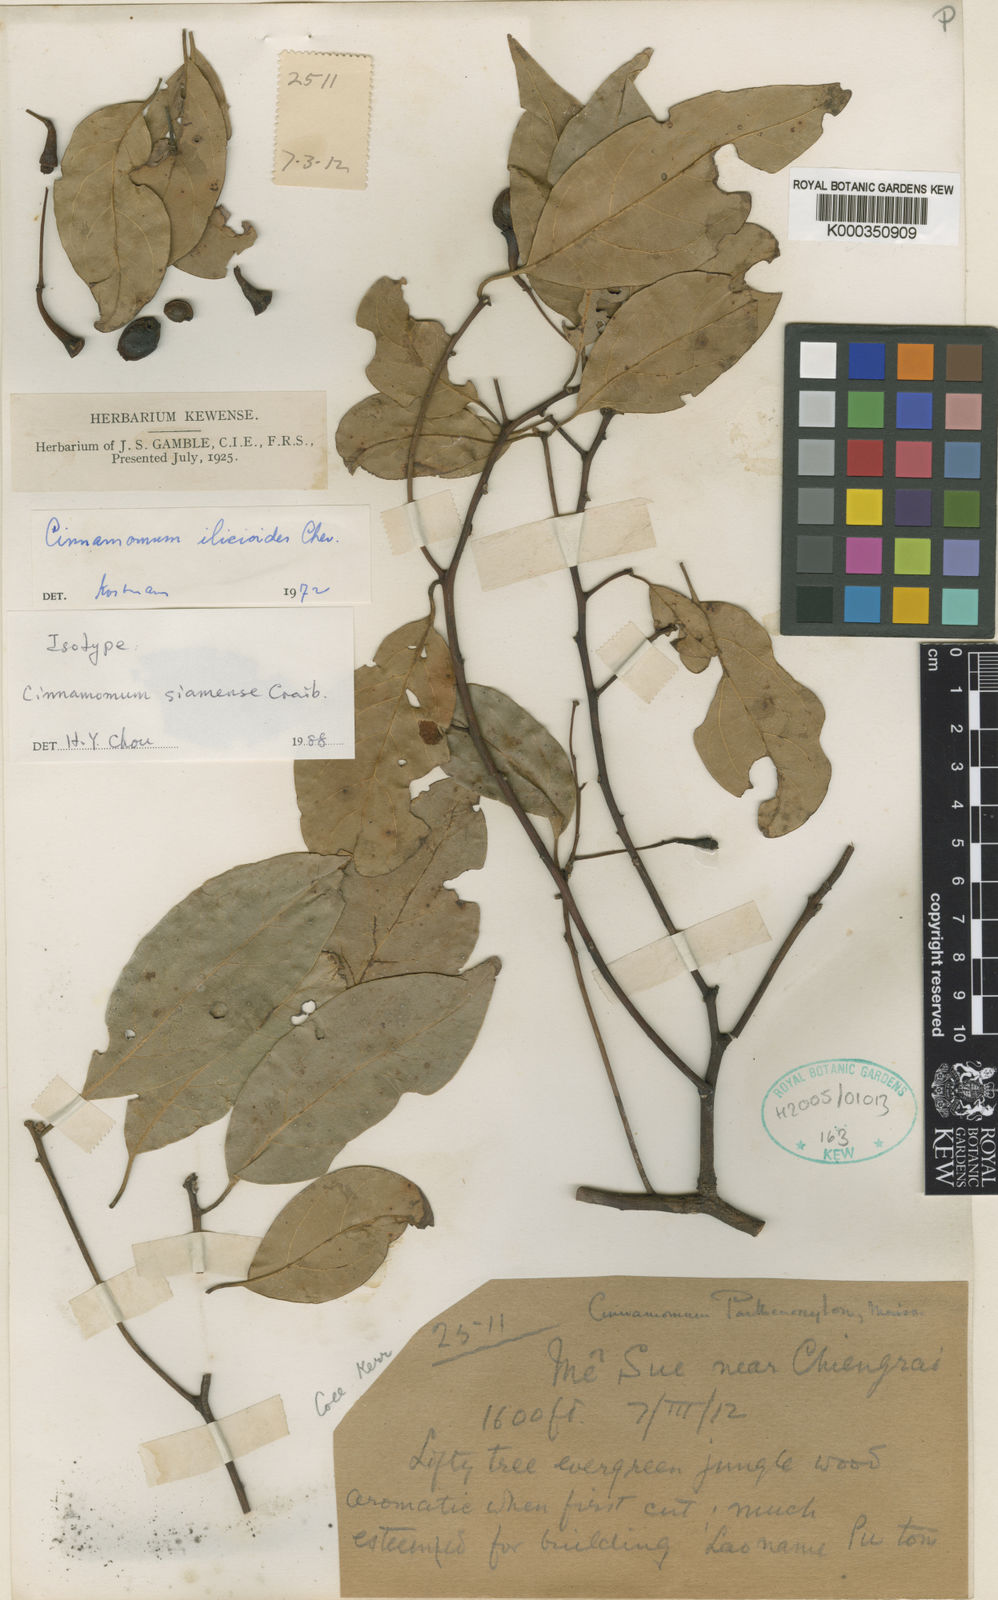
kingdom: Plantae
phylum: Tracheophyta
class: Magnoliopsida
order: Laurales
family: Lauraceae
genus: Cinnamomum
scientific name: Cinnamomum glaucescens
